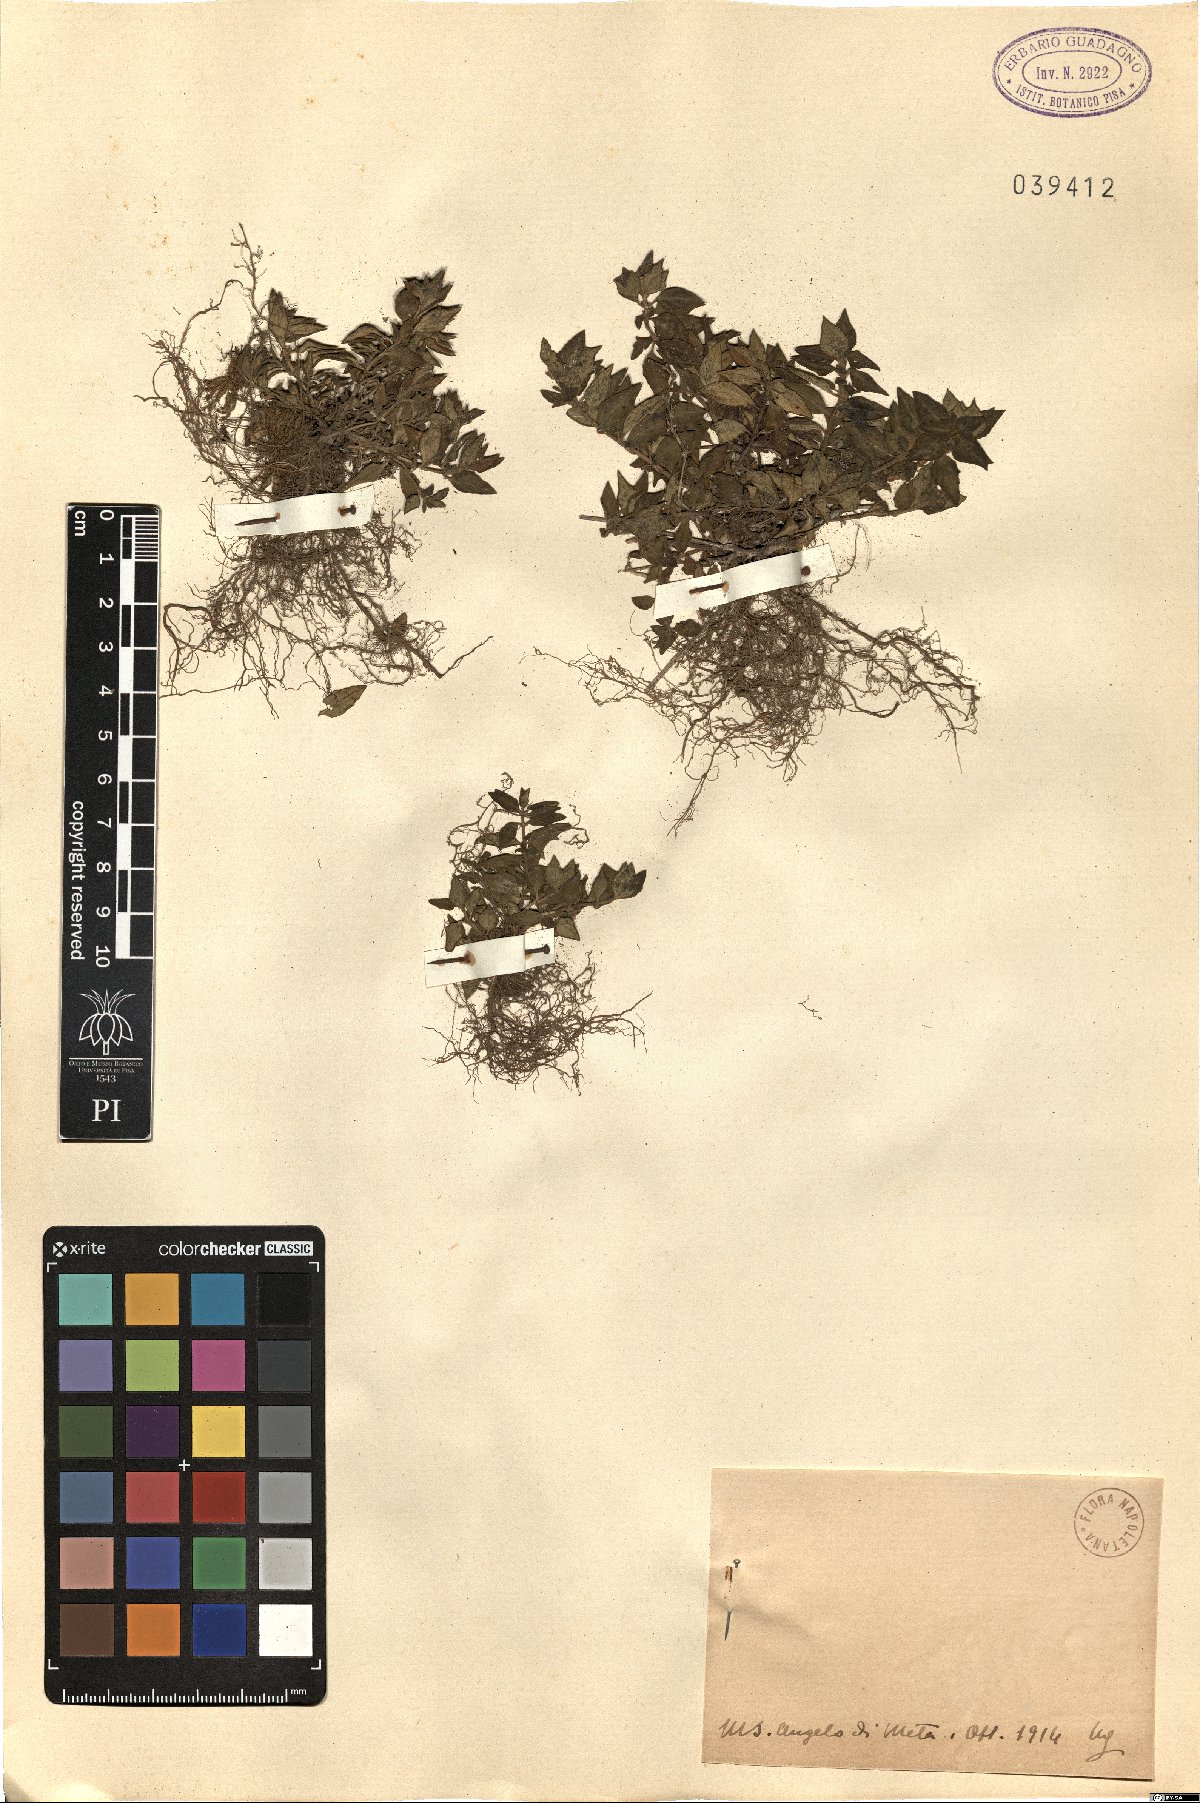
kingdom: Plantae
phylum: Tracheophyta
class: Magnoliopsida
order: Lamiales
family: Lamiaceae
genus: Calamintha
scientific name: Calamintha
